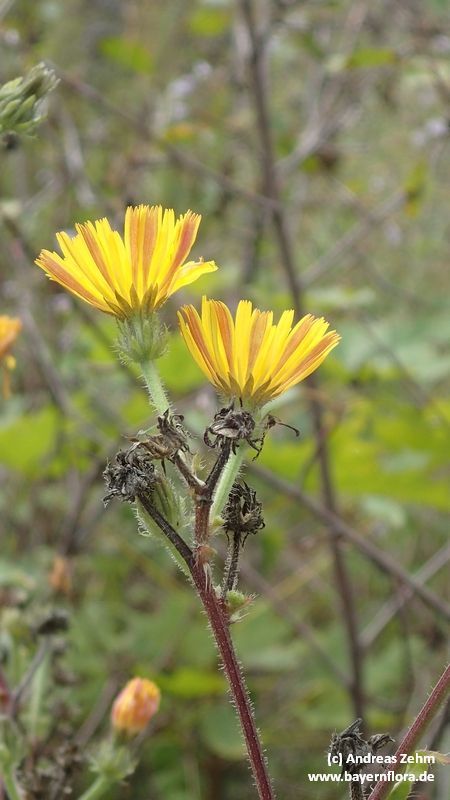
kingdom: Plantae
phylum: Tracheophyta
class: Magnoliopsida
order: Asterales
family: Asteraceae
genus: Picris
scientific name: Picris hieracioides
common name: Hawkweed oxtongue
